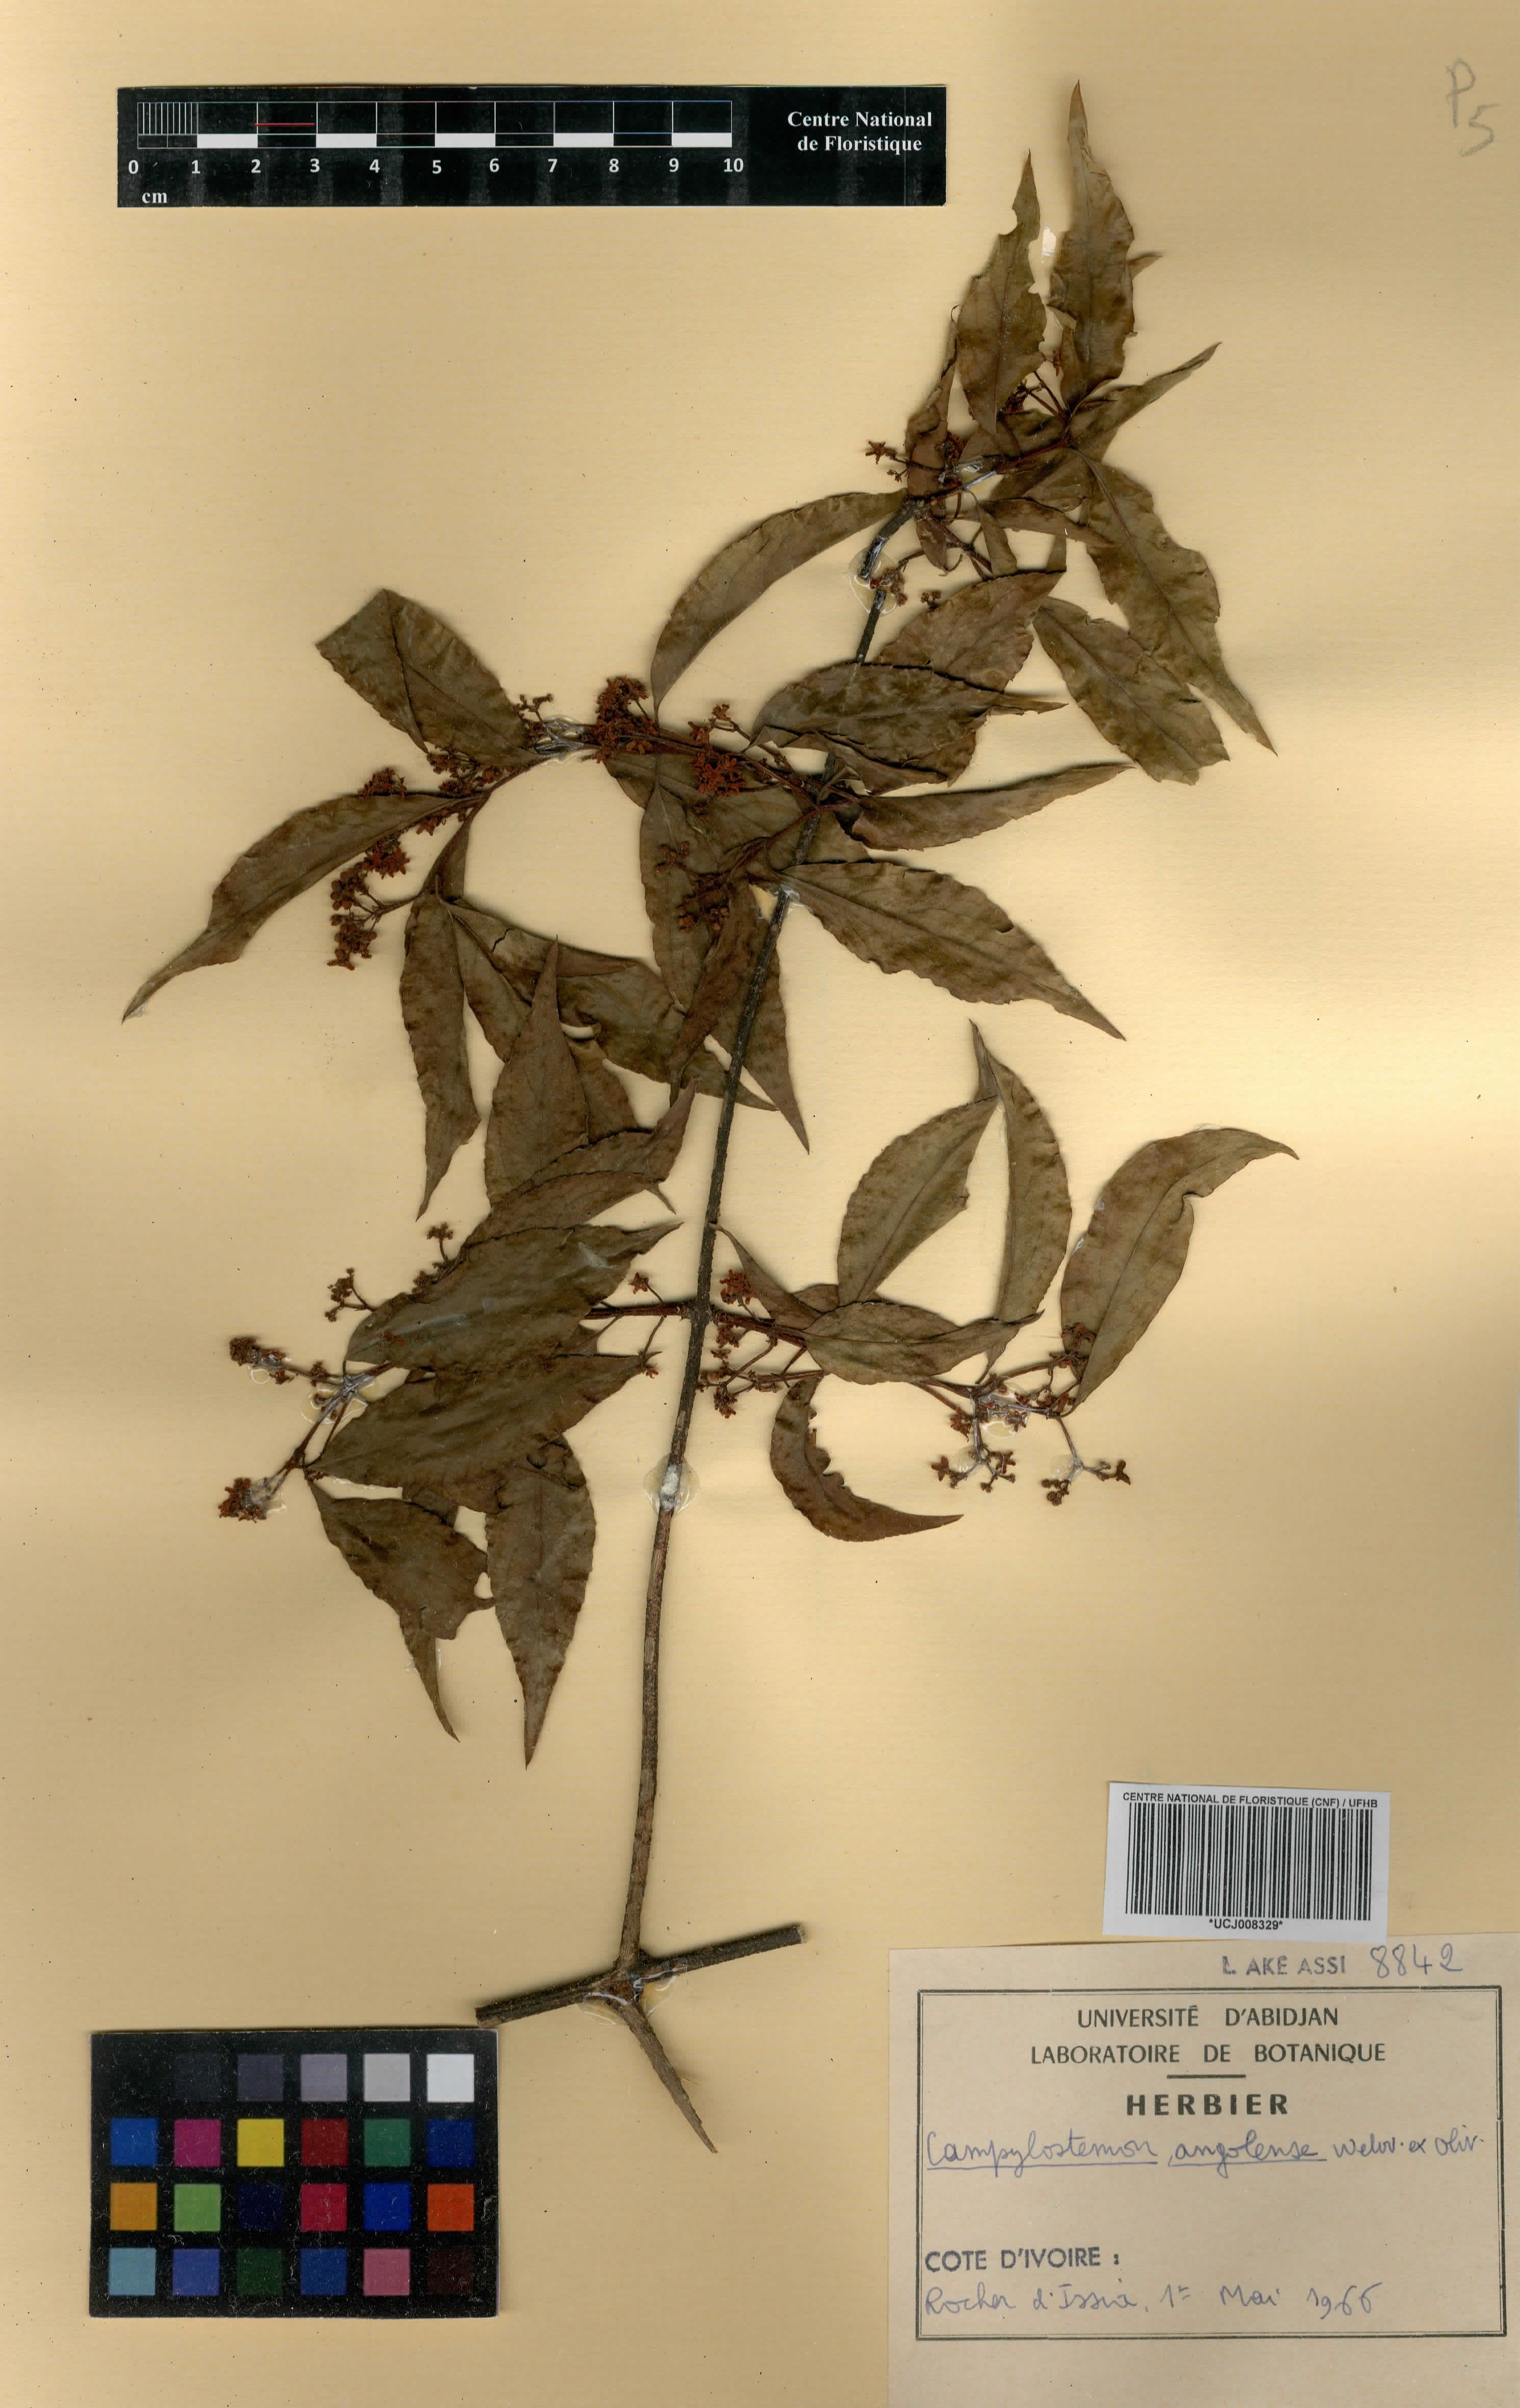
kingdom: Plantae
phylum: Tracheophyta
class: Magnoliopsida
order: Celastrales
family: Celastraceae
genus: Campylostemon
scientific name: Campylostemon angolense
